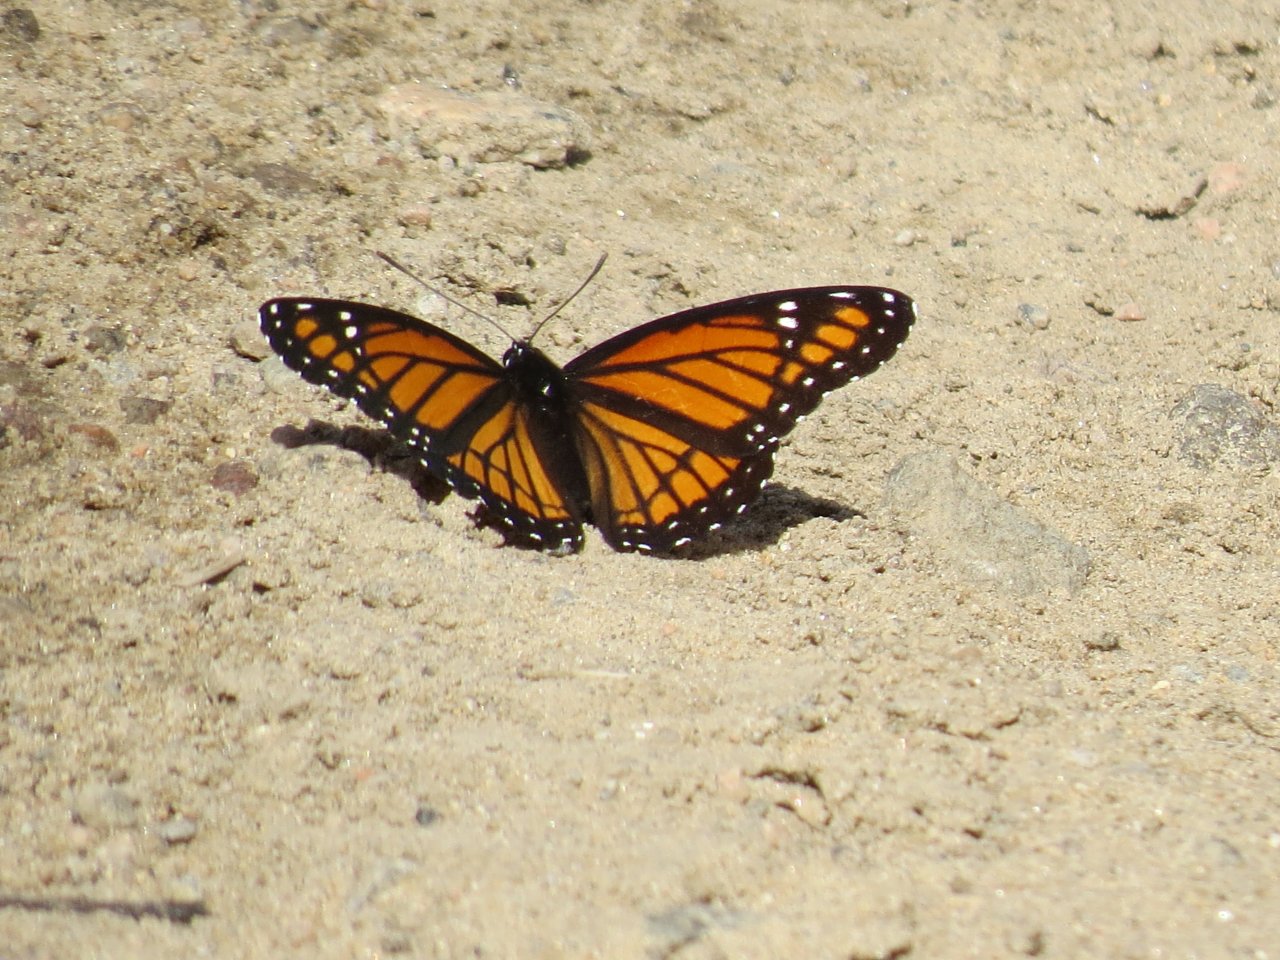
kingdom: Animalia
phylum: Arthropoda
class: Insecta
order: Lepidoptera
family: Nymphalidae
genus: Limenitis
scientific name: Limenitis archippus
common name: Viceroy
